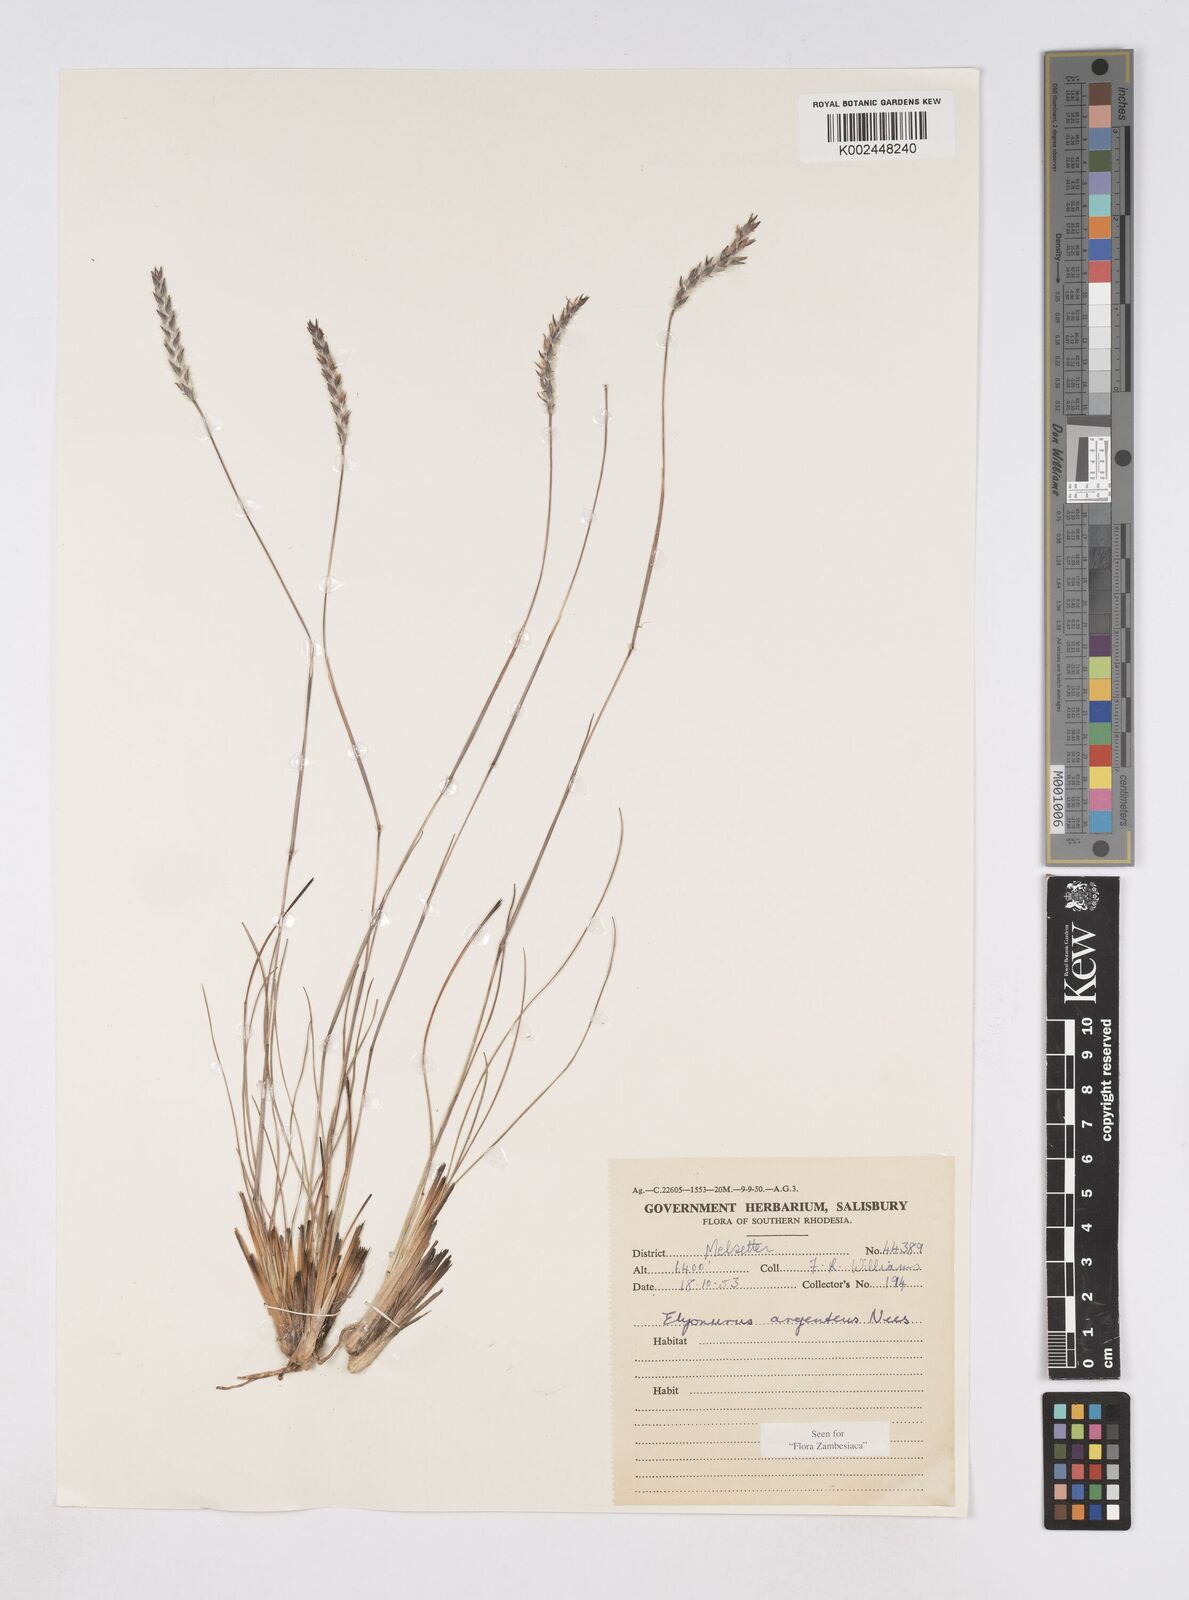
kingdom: Plantae
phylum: Tracheophyta
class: Liliopsida
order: Poales
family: Poaceae
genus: Elionurus
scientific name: Elionurus muticus
